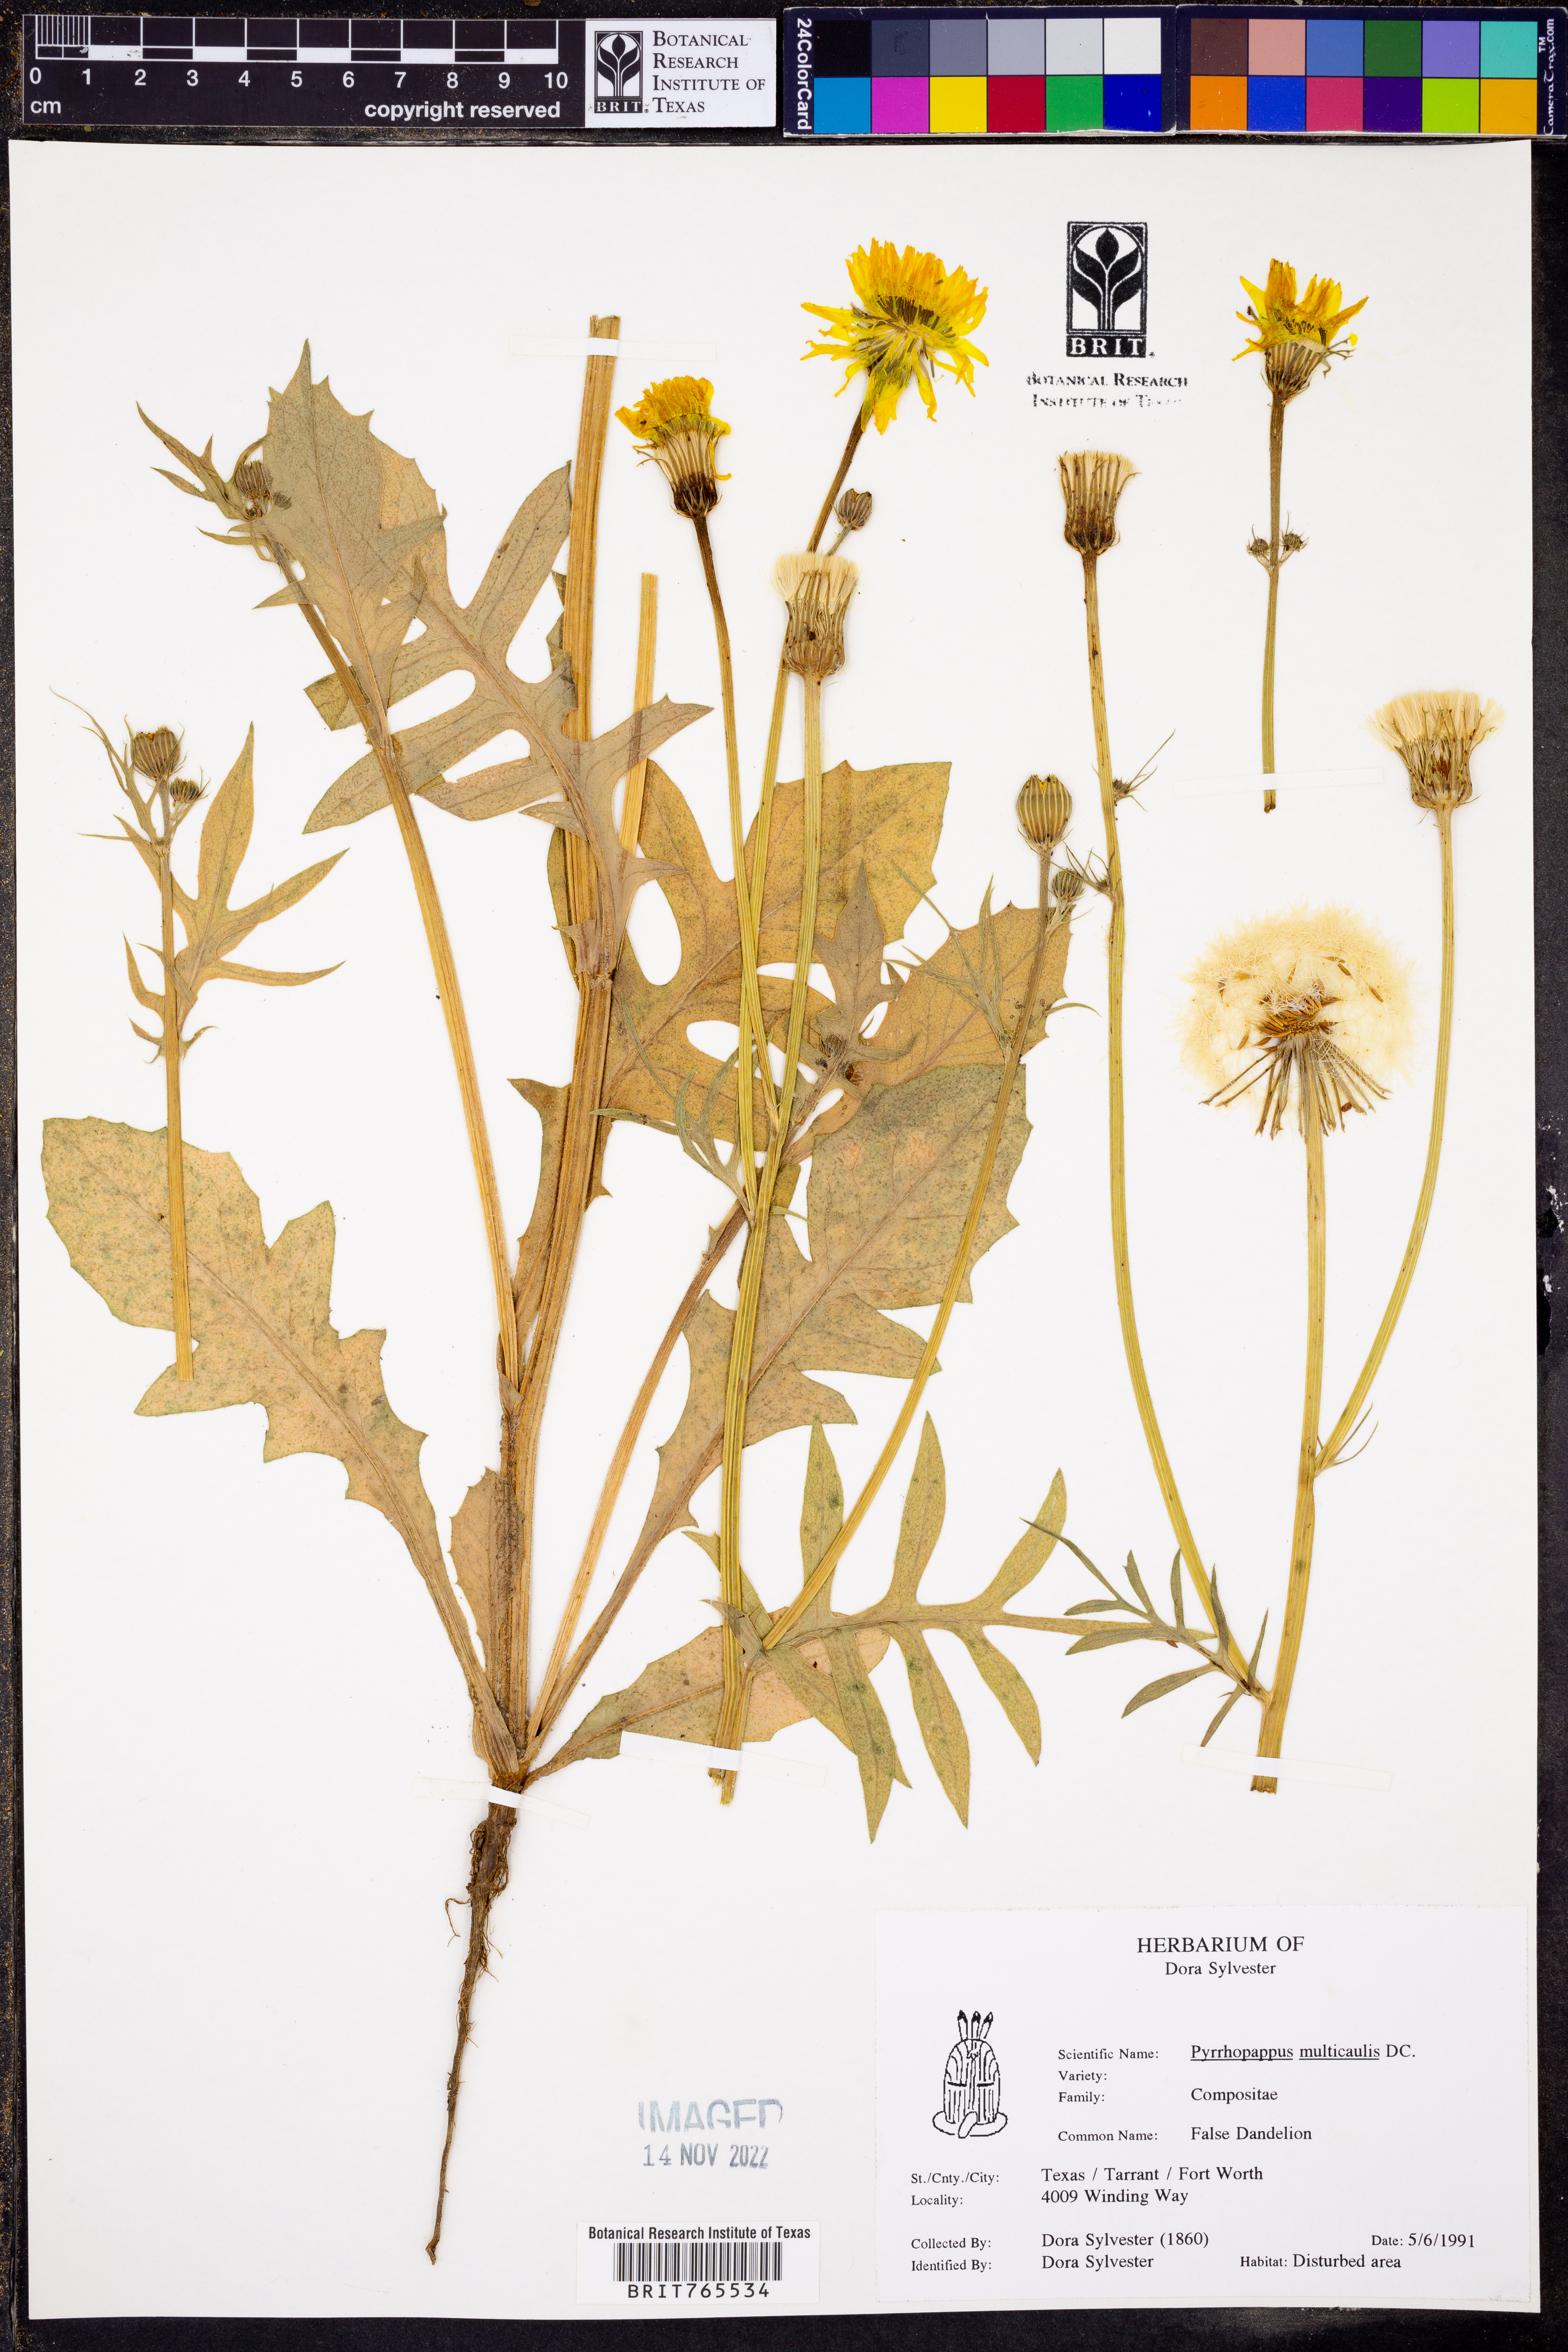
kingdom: Plantae
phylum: Tracheophyta
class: Magnoliopsida
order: Asterales
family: Asteraceae
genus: Pyrrhopappus
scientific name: Pyrrhopappus pauciflorus
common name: Texas false dandelion
